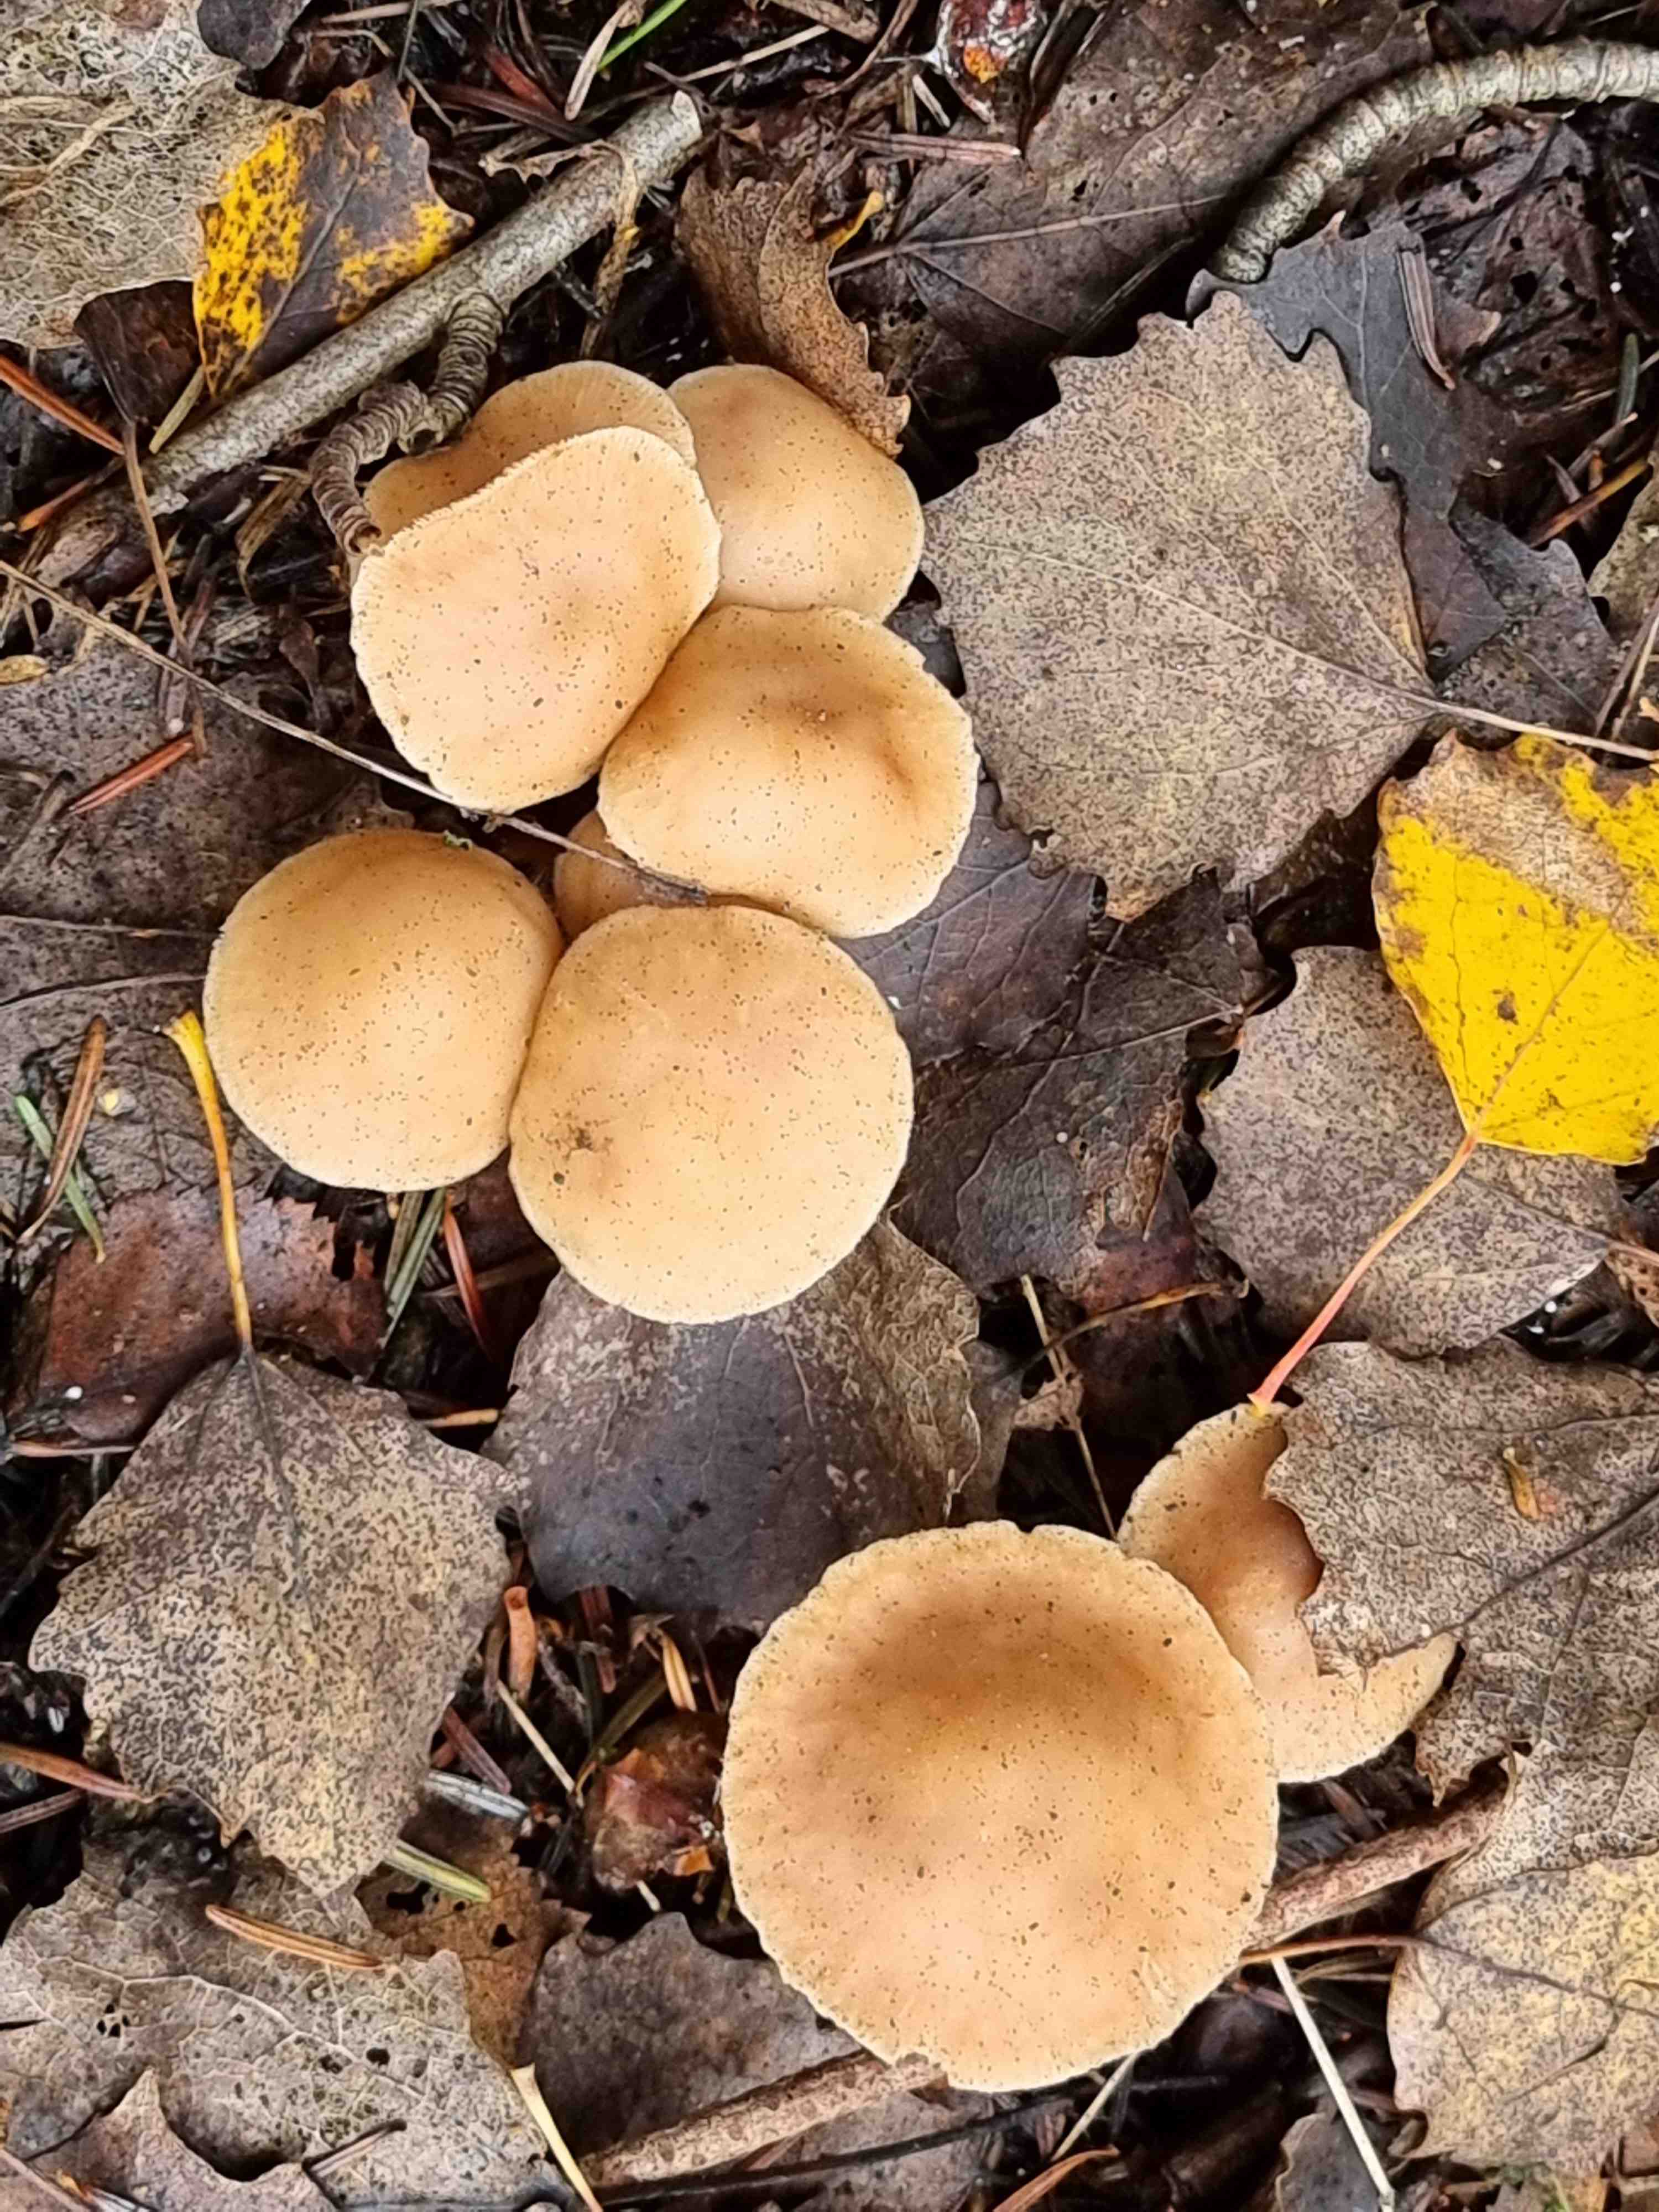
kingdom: Fungi
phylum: Basidiomycota
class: Agaricomycetes
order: Agaricales
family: Omphalotaceae
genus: Collybiopsis
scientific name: Collybiopsis confluens
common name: knippe-fladhat
